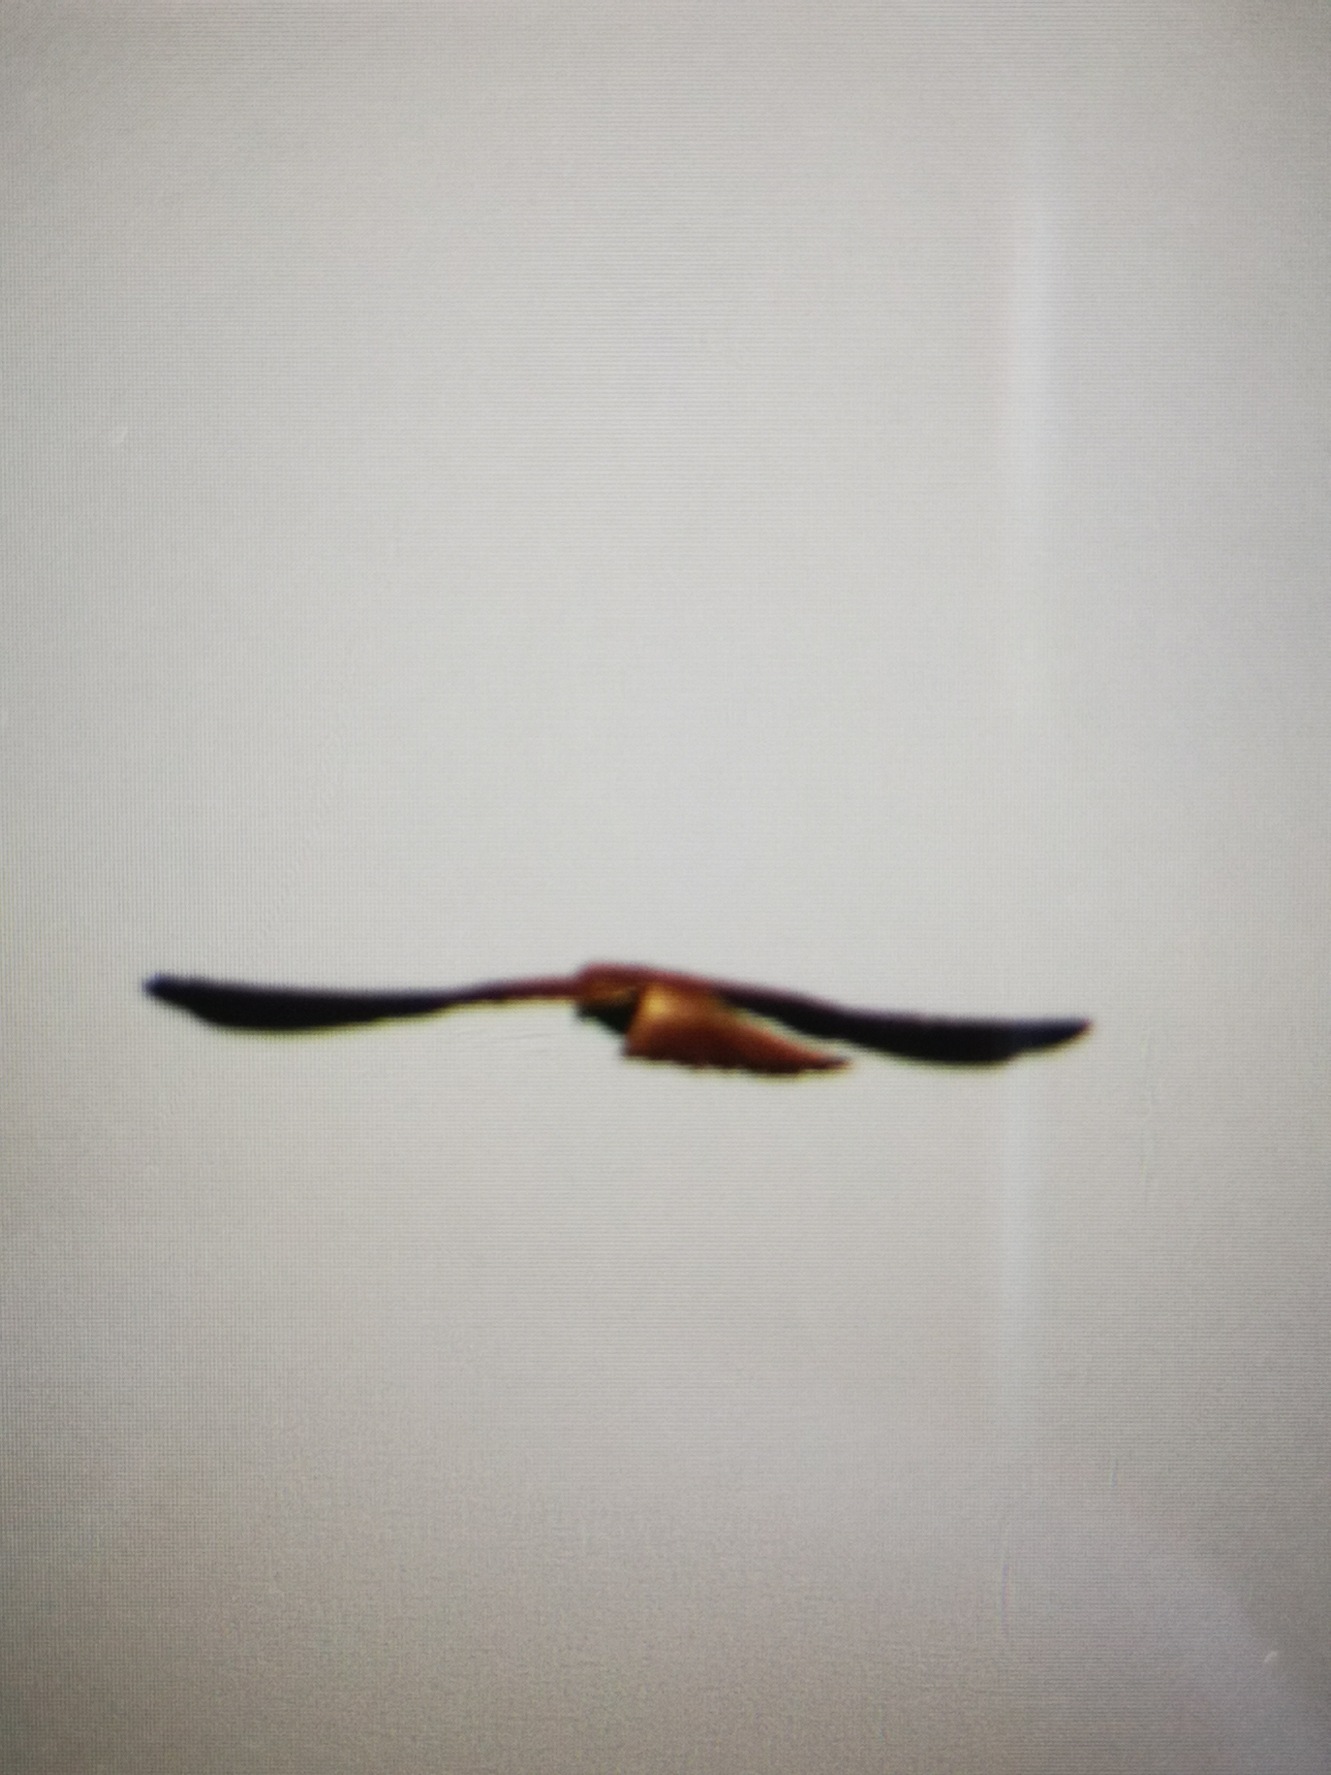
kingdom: Animalia
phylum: Chordata
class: Aves
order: Falconiformes
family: Falconidae
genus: Falco
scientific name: Falco tinnunculus
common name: Tårnfalk
